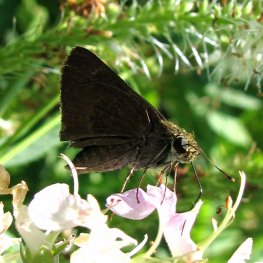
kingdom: Animalia
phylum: Arthropoda
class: Insecta
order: Lepidoptera
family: Hesperiidae
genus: Euphyes
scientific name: Euphyes vestris
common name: Dun Skipper
